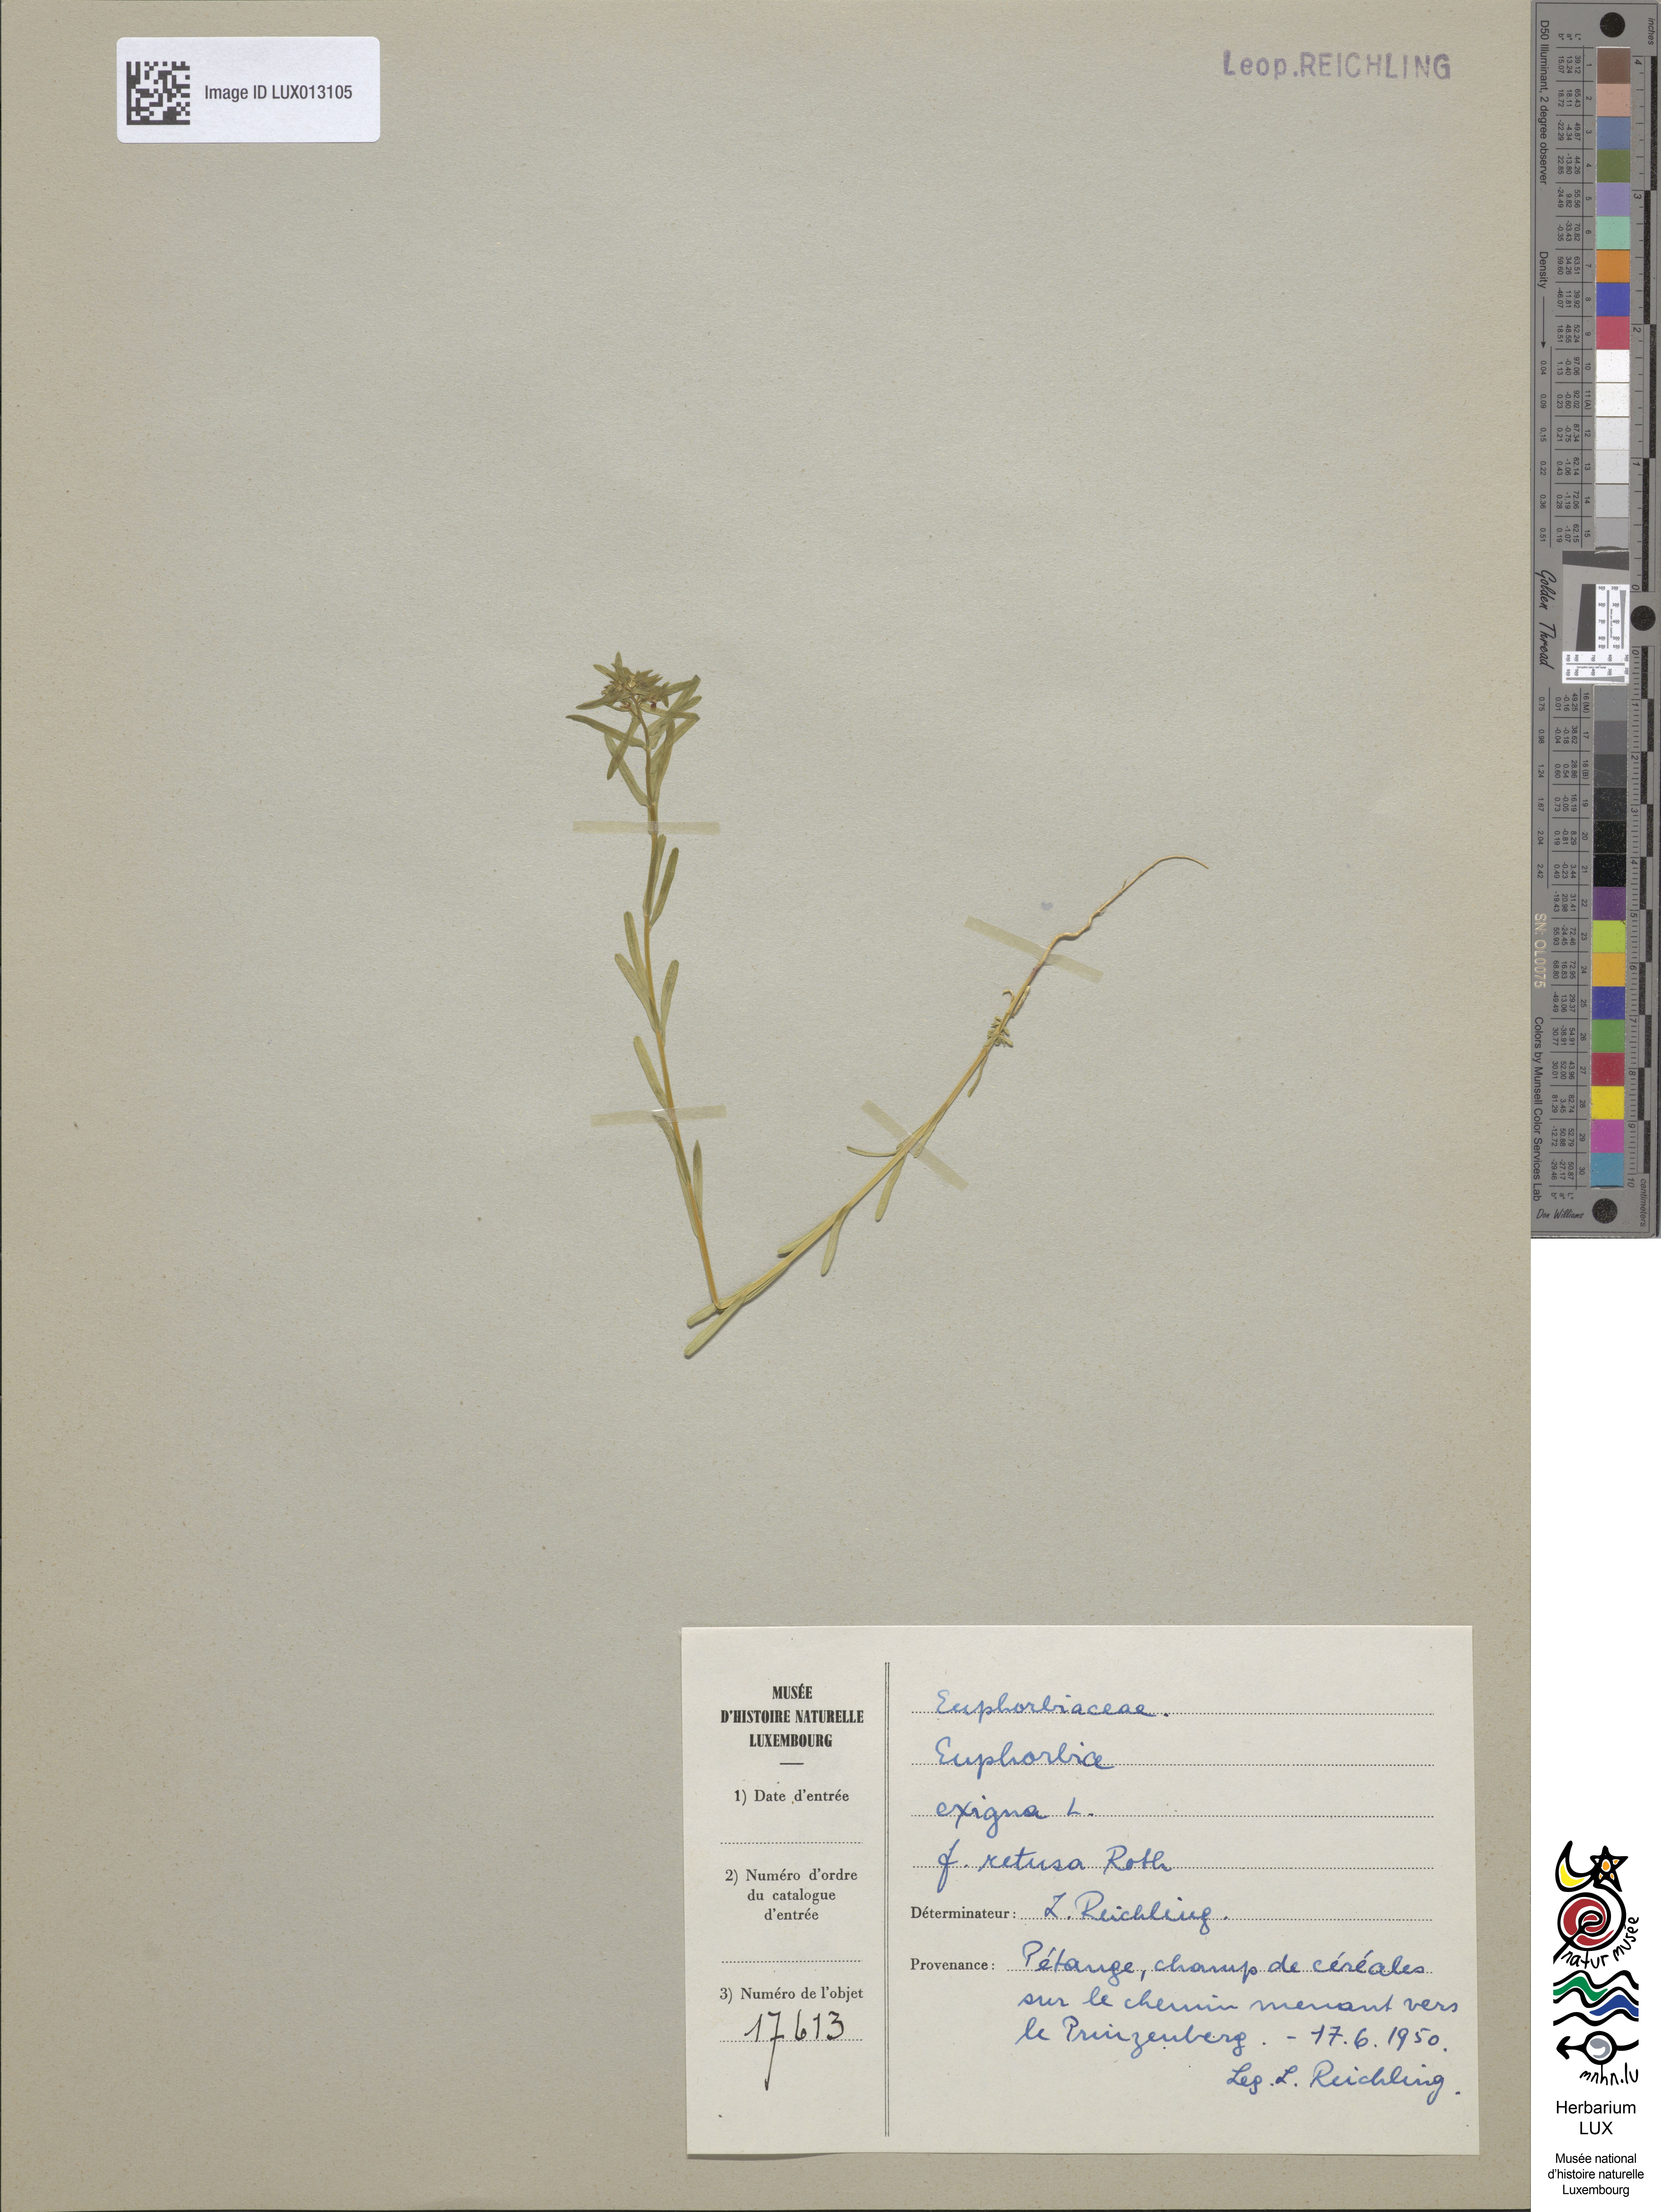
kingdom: Plantae
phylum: Tracheophyta
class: Magnoliopsida
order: Malpighiales
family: Euphorbiaceae
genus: Euphorbia
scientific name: Euphorbia exigua
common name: Dwarf spurge
